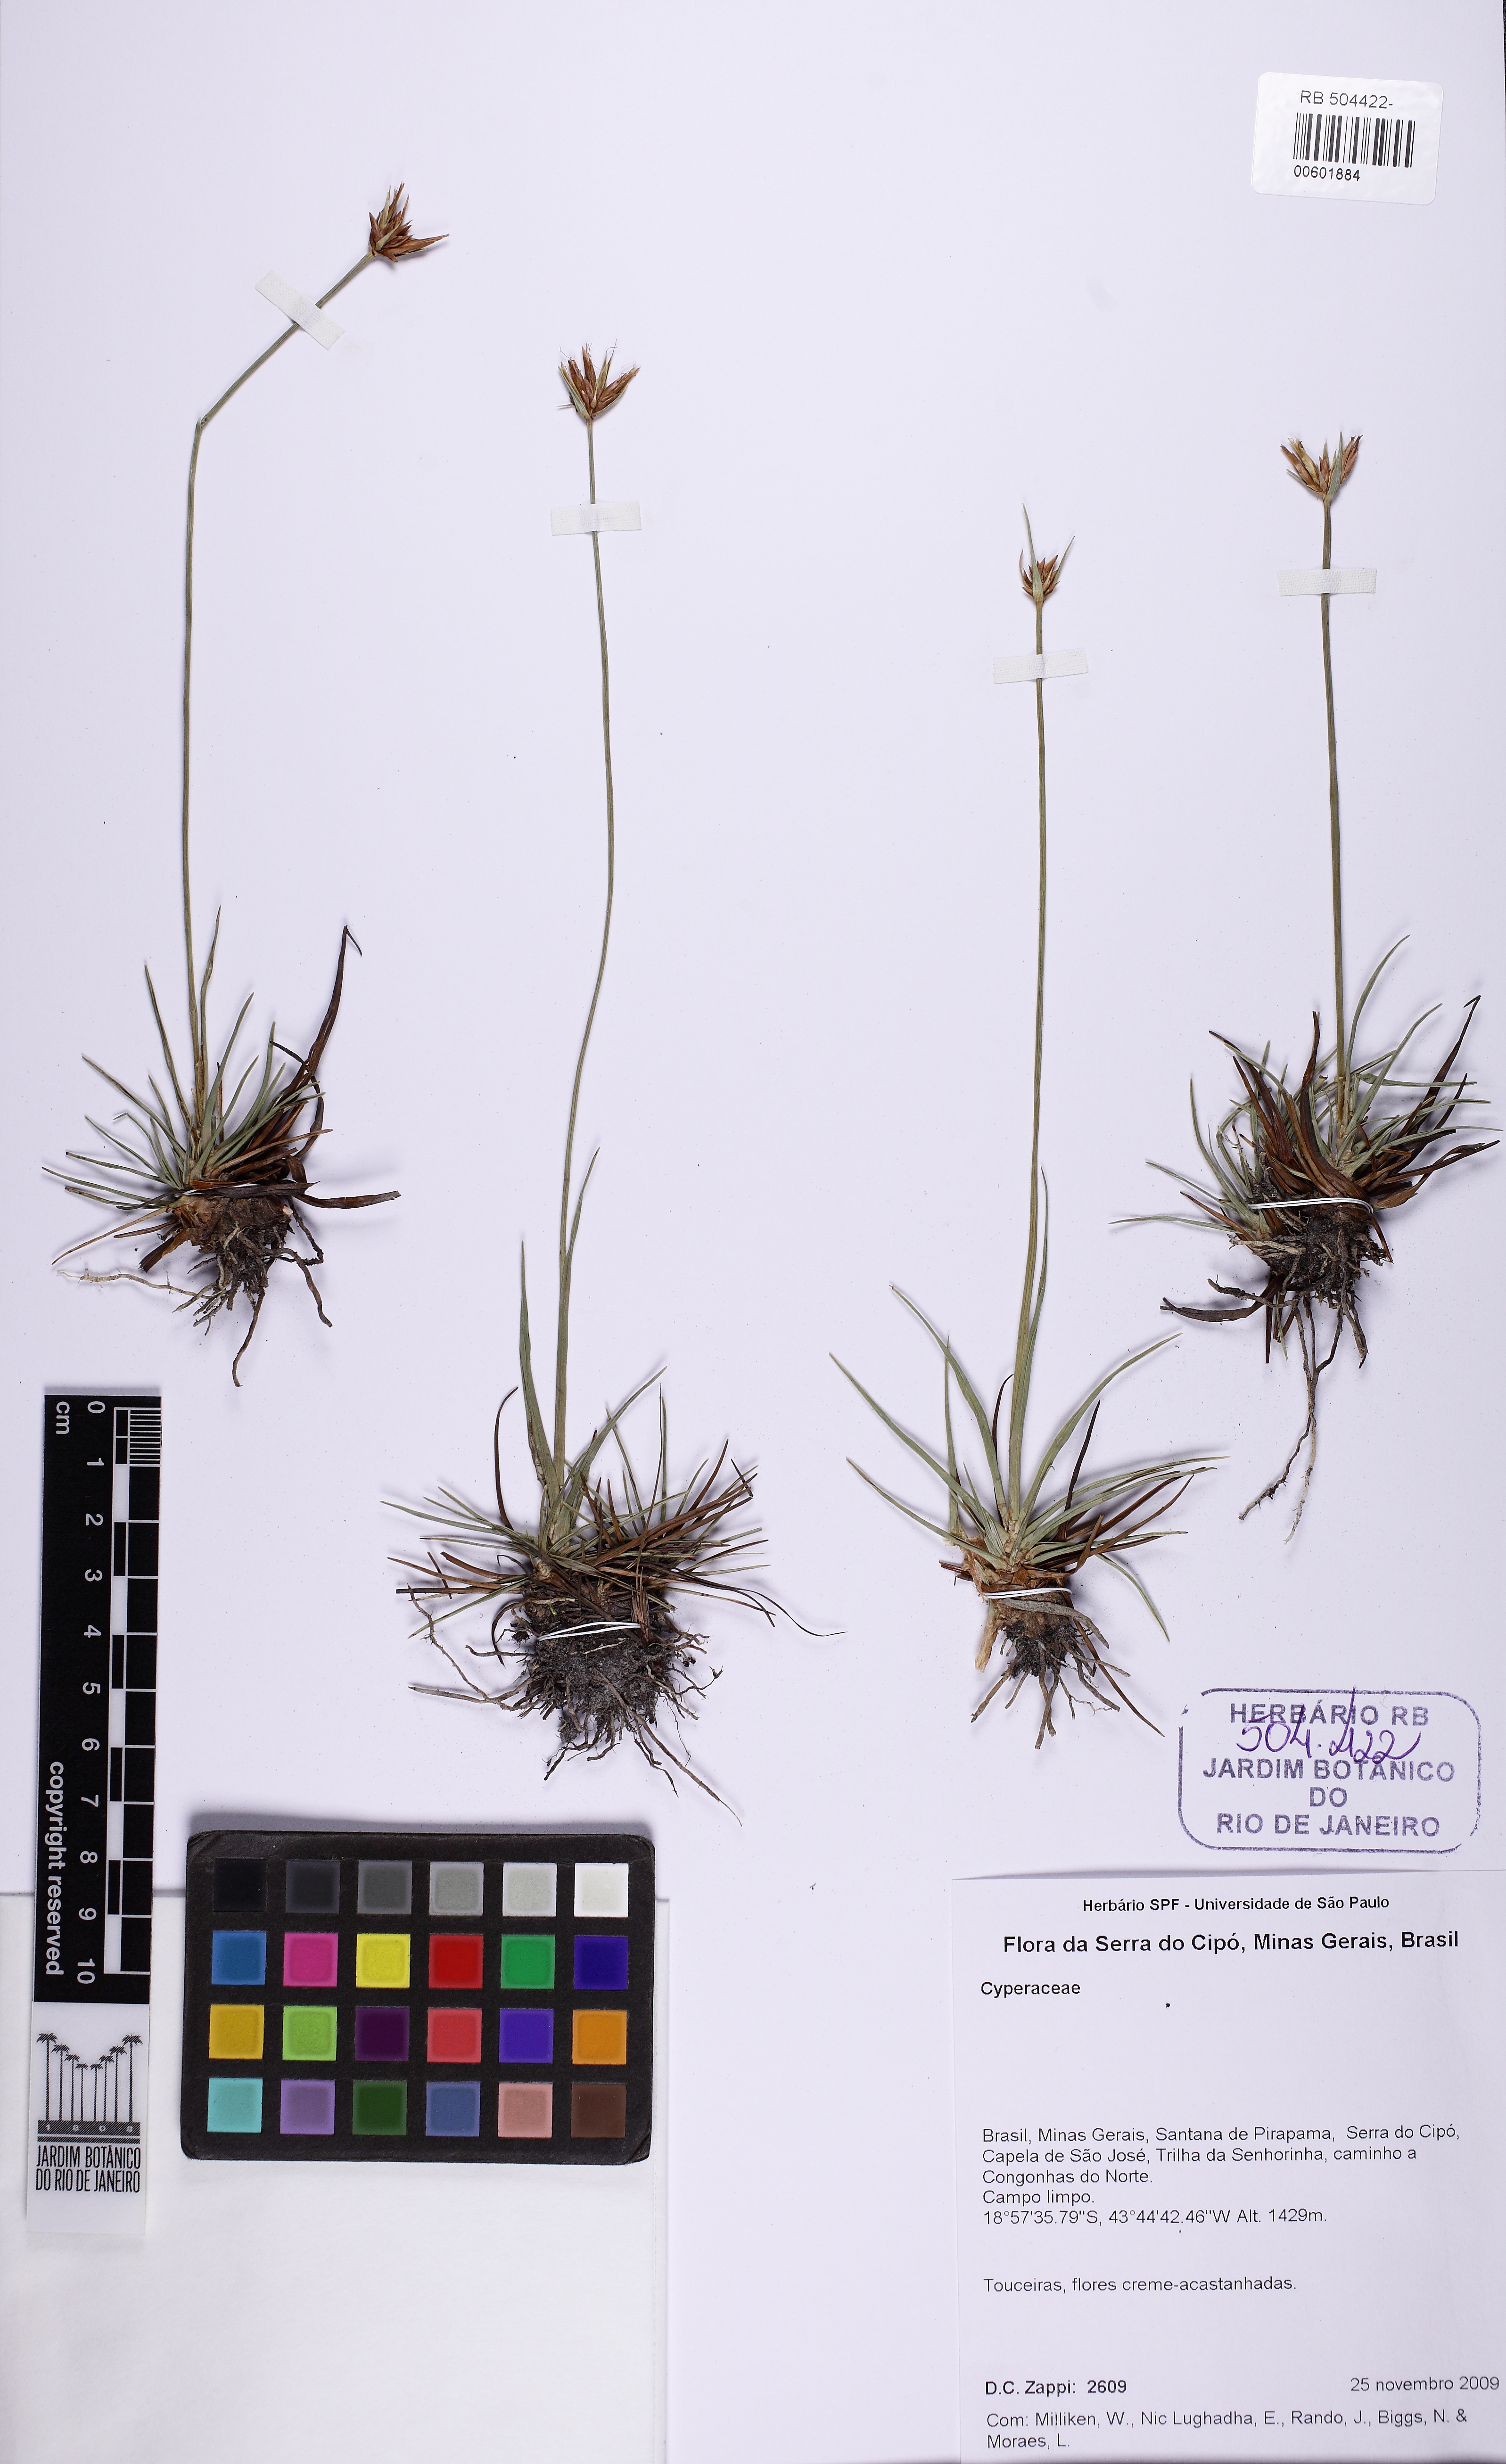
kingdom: Plantae
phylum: Tracheophyta
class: Liliopsida
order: Poales
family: Cyperaceae
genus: Rhynchospora
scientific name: Rhynchospora confusa
